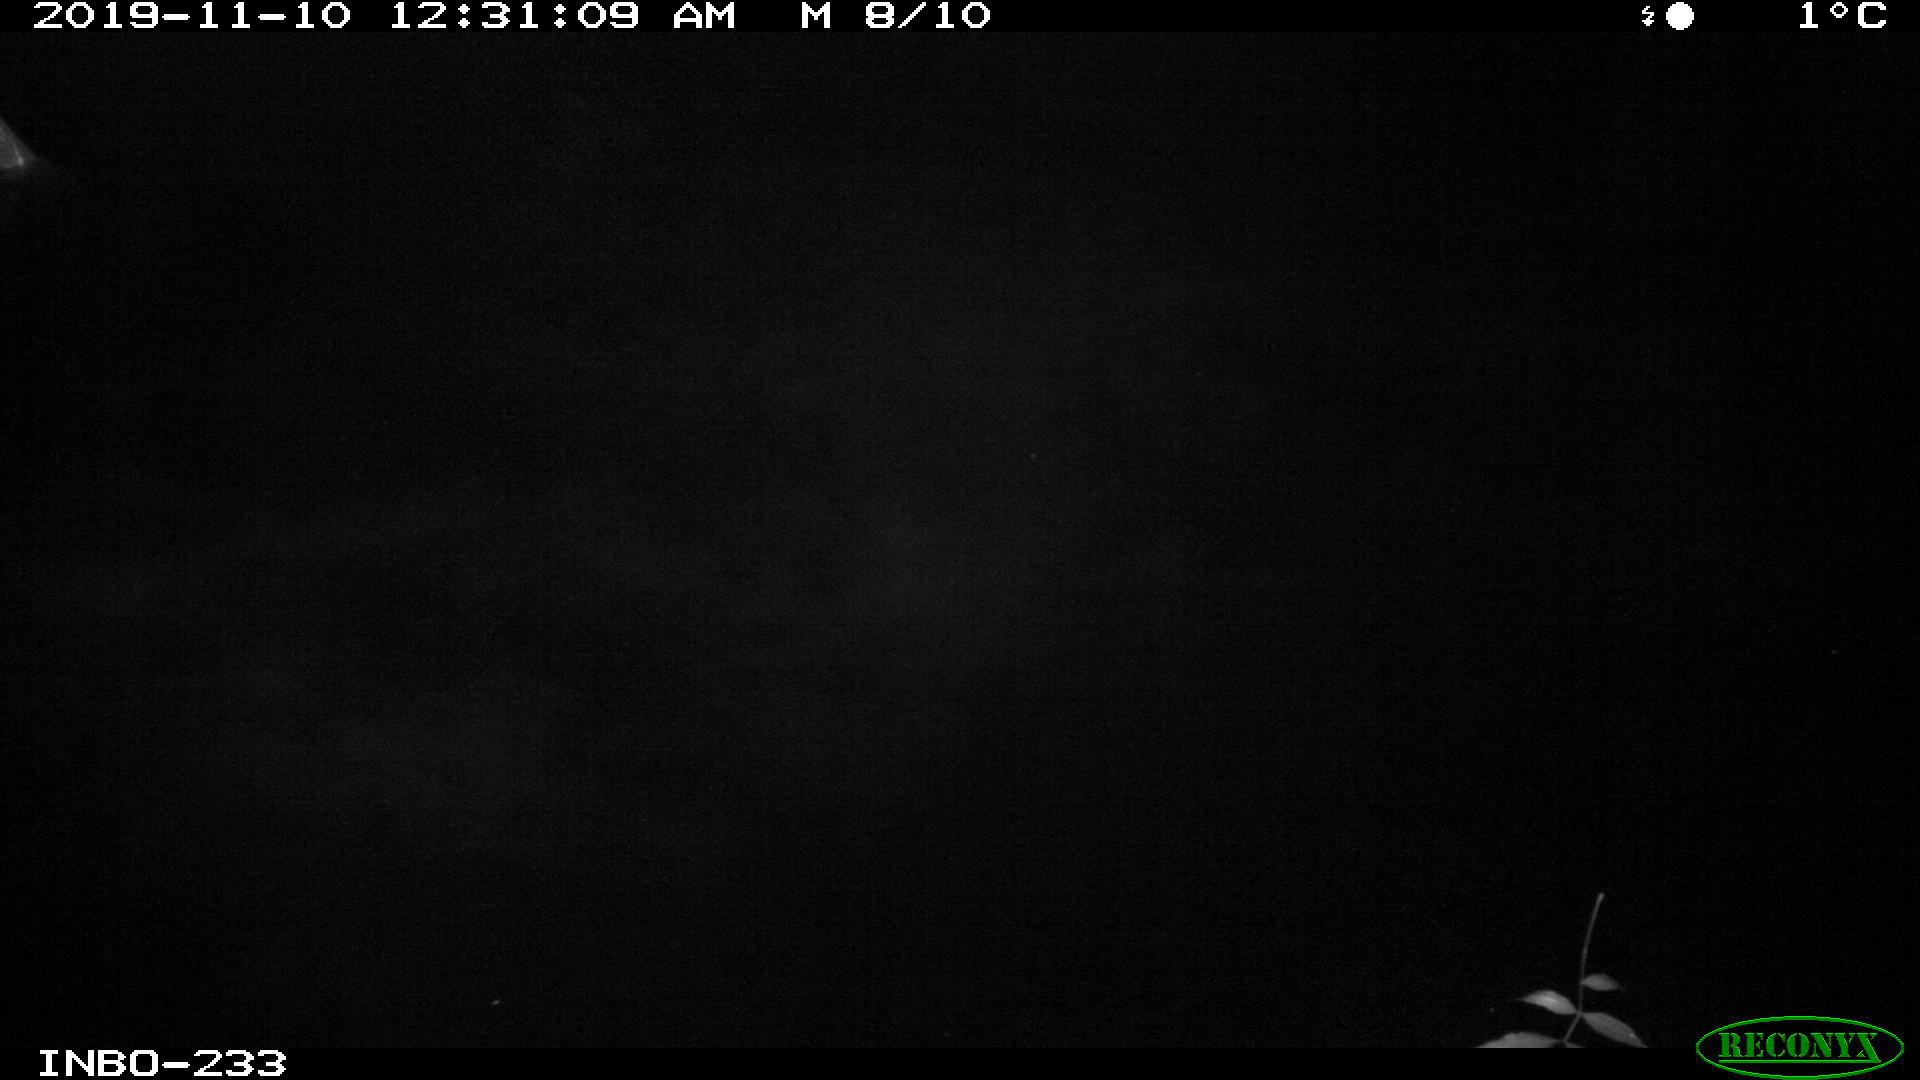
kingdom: Animalia
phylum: Chordata
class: Aves
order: Anseriformes
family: Anatidae
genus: Anas
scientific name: Anas platyrhynchos
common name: Mallard
